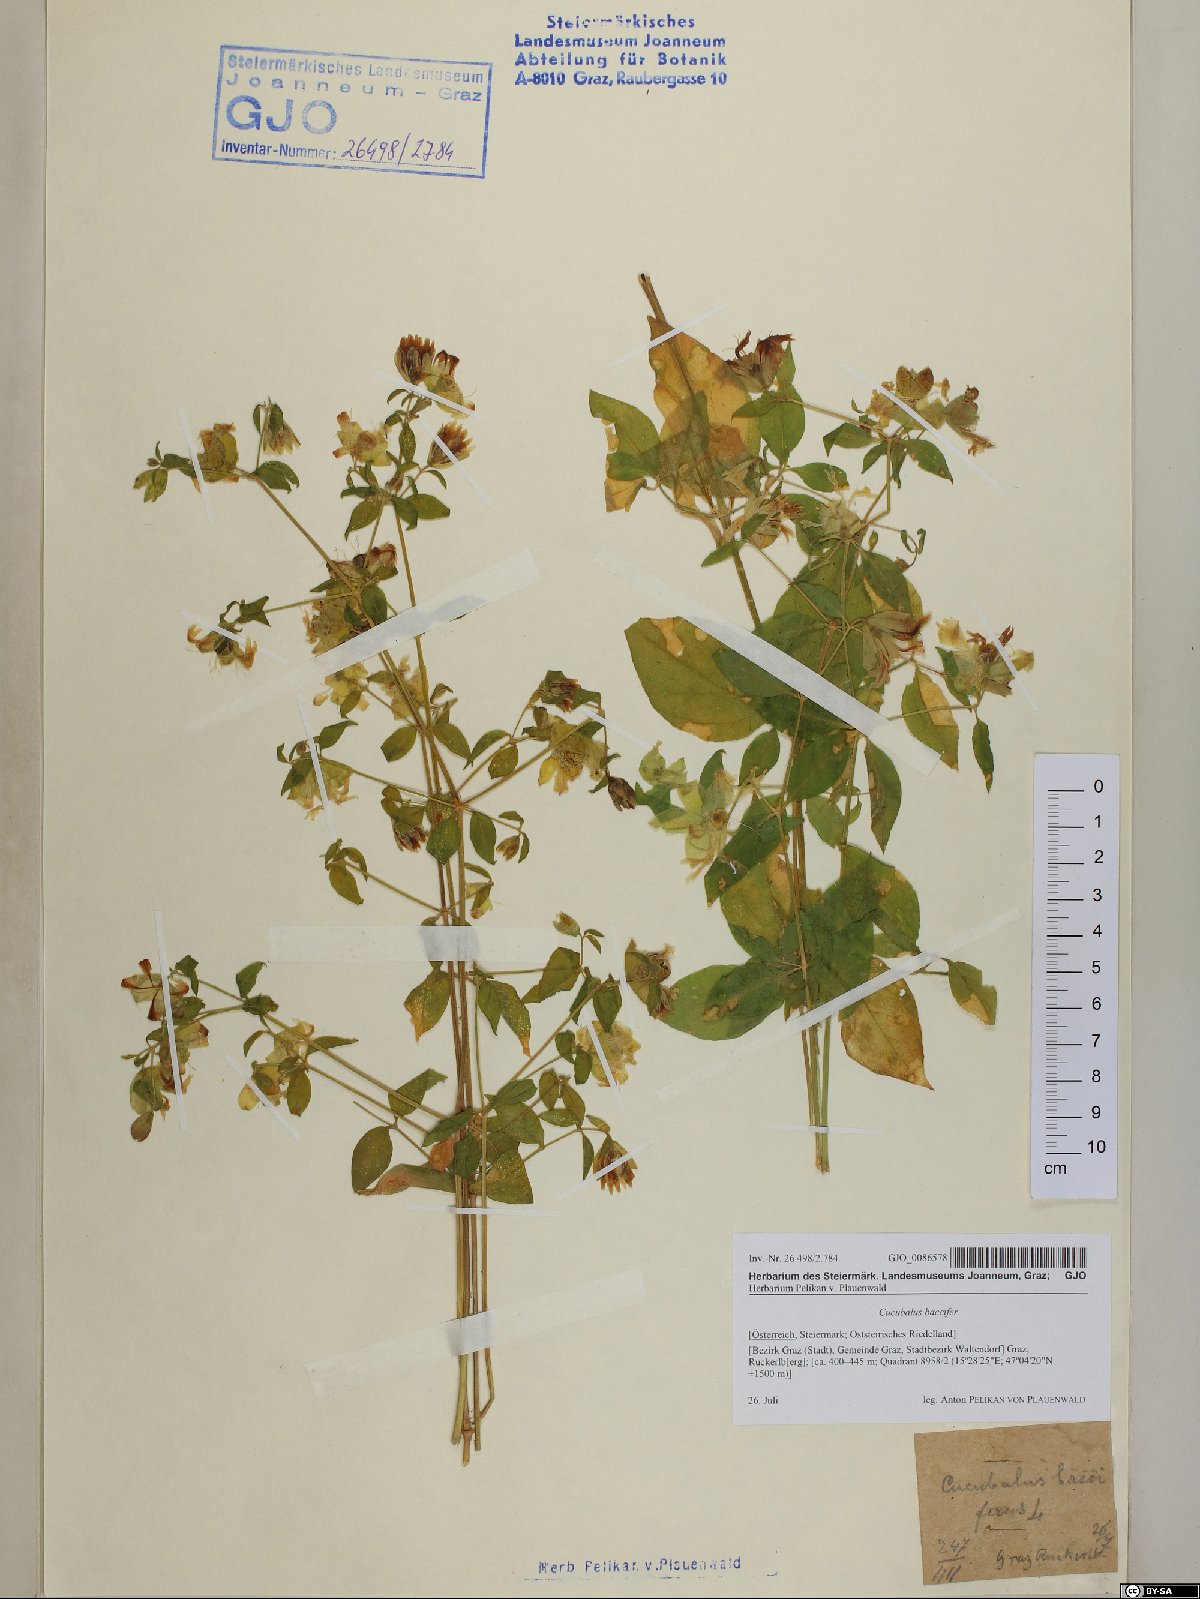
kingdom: Plantae
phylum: Tracheophyta
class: Magnoliopsida
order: Caryophyllales
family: Caryophyllaceae
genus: Silene
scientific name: Silene baccifera
